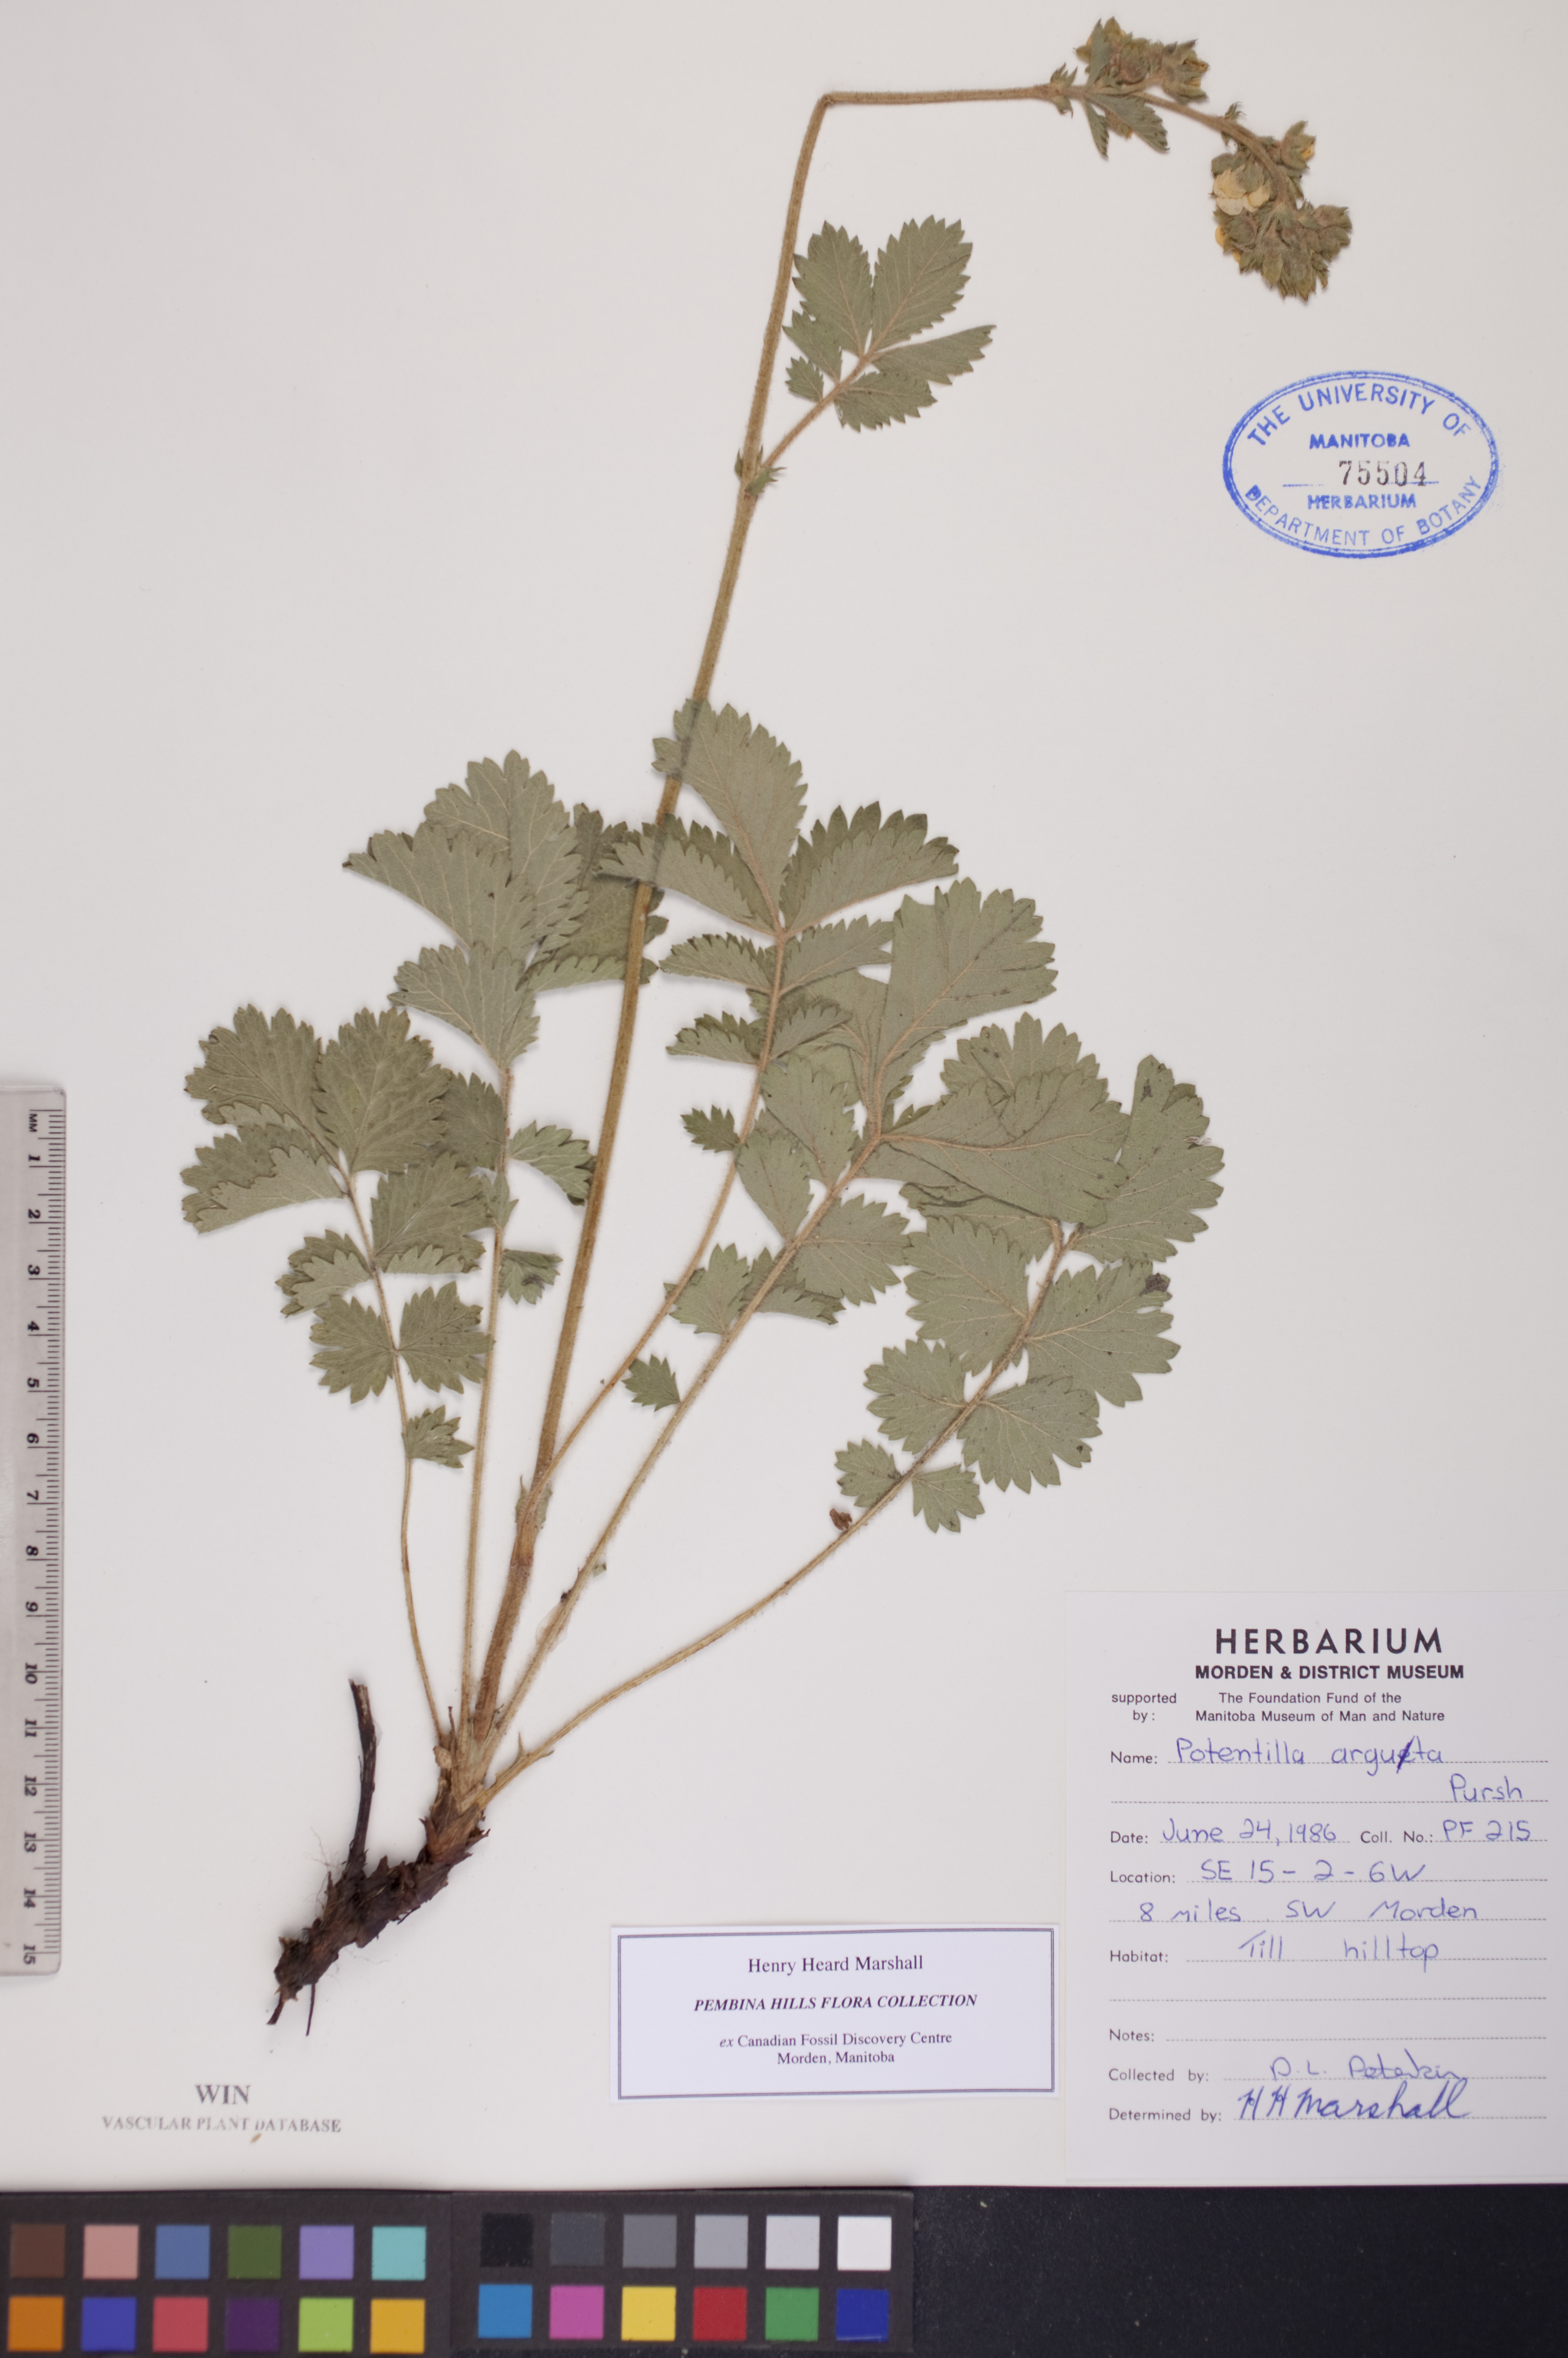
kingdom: Plantae
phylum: Tracheophyta
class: Magnoliopsida
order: Rosales
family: Rosaceae
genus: Drymocallis
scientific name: Drymocallis arguta
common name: Tall cinquefoil
